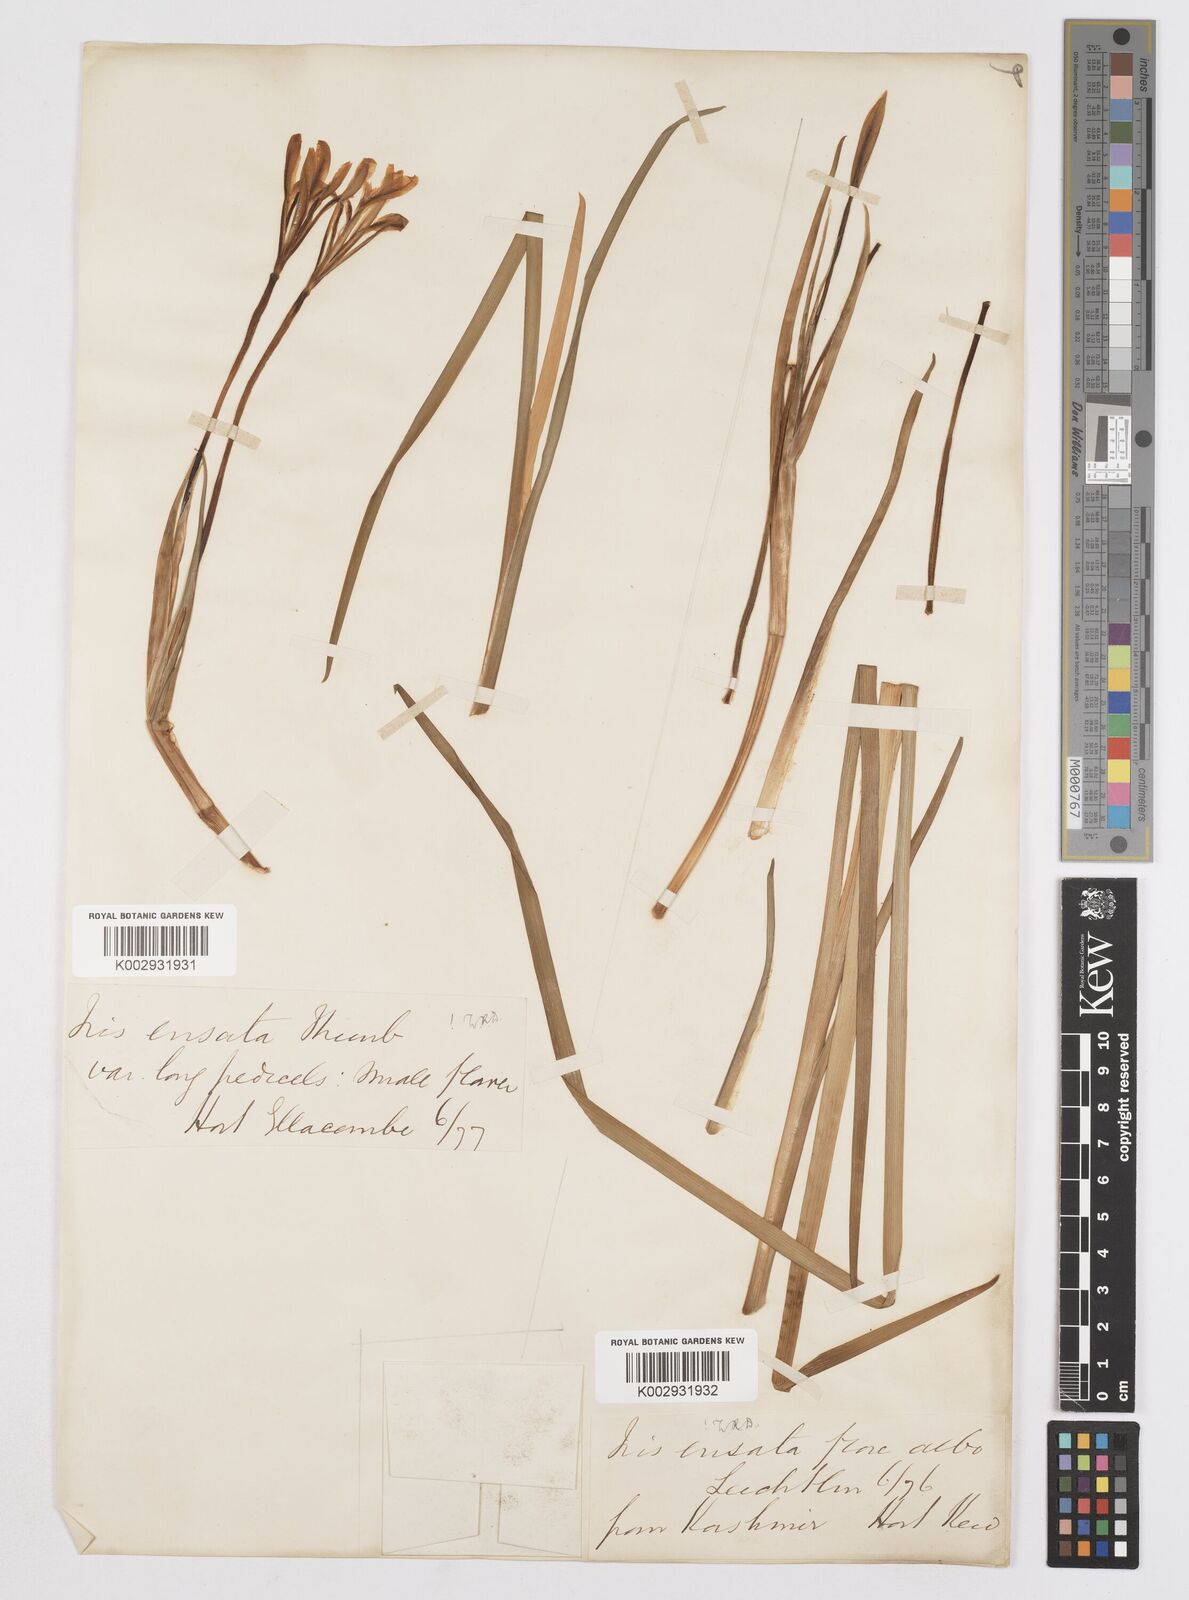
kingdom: Plantae
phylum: Tracheophyta
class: Liliopsida
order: Asparagales
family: Iridaceae
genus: Iris
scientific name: Iris ensata
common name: Beaked iris
